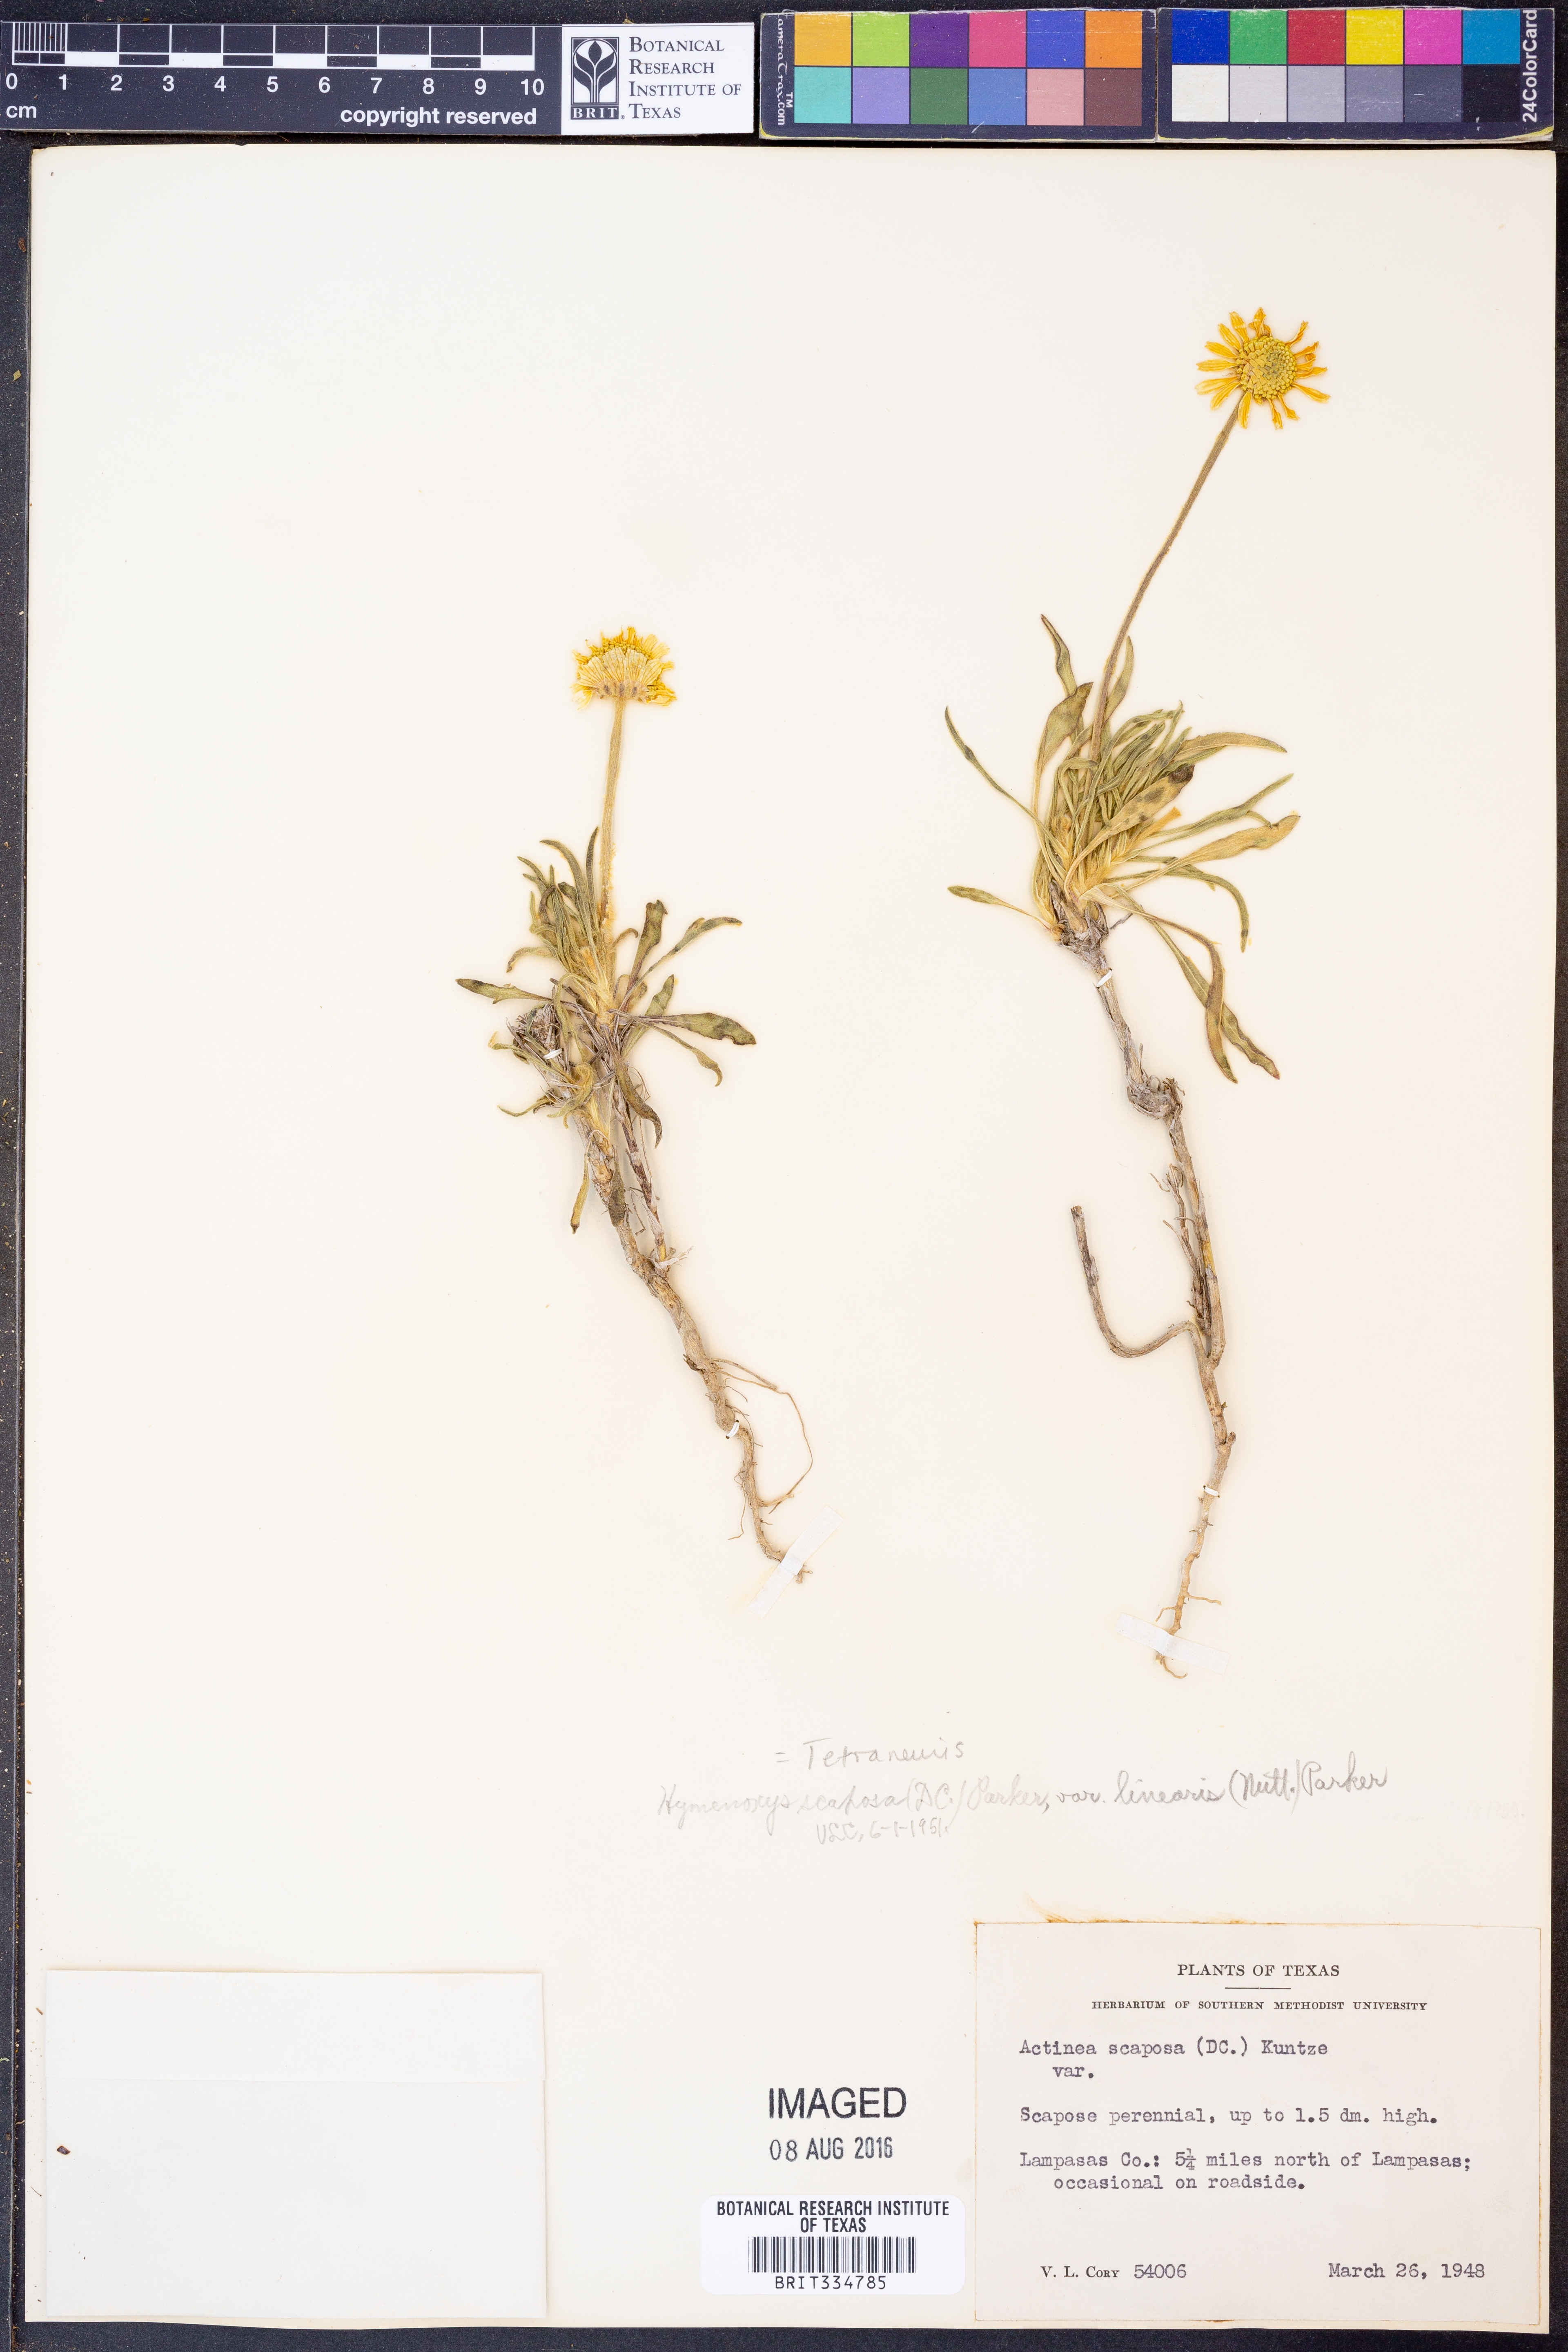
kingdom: Plantae
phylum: Tracheophyta
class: Magnoliopsida
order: Asterales
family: Asteraceae
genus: Tetraneuris
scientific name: Tetraneuris scaposa
